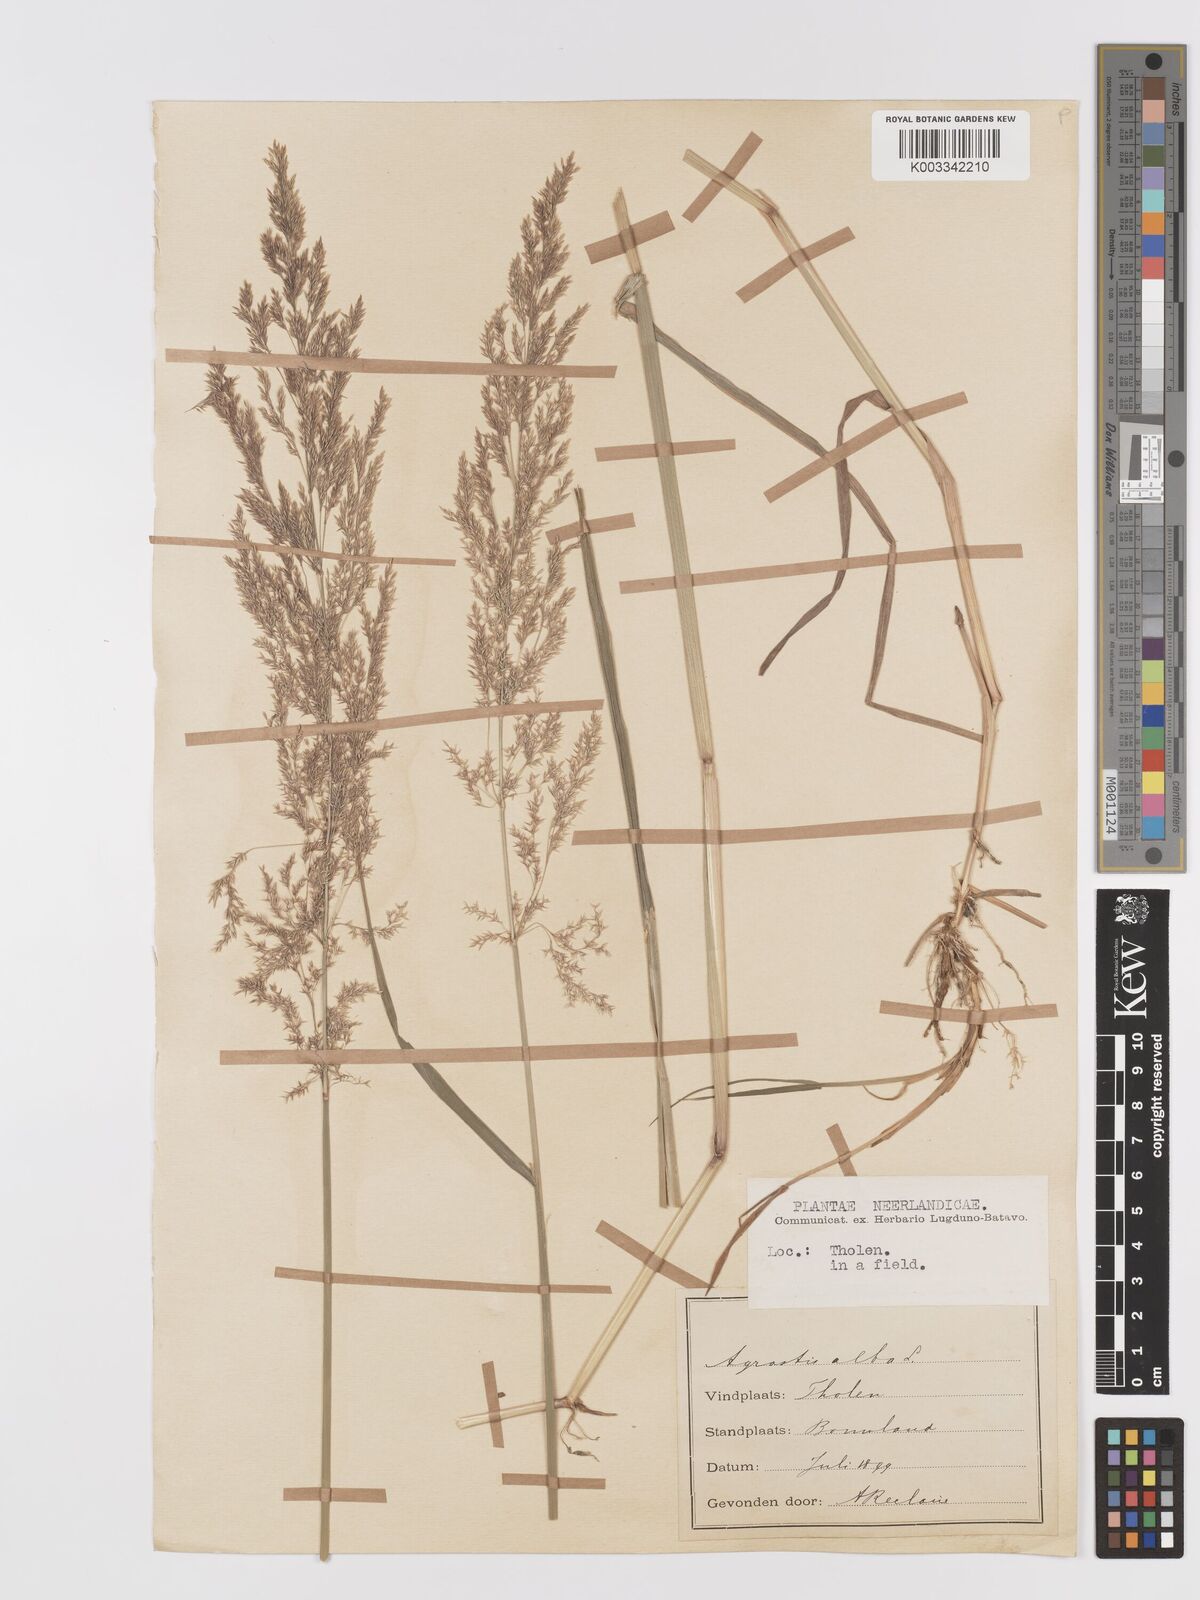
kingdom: Plantae
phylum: Tracheophyta
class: Liliopsida
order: Poales
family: Poaceae
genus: Agrostis
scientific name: Agrostis stolonifera
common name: Creeping bentgrass
